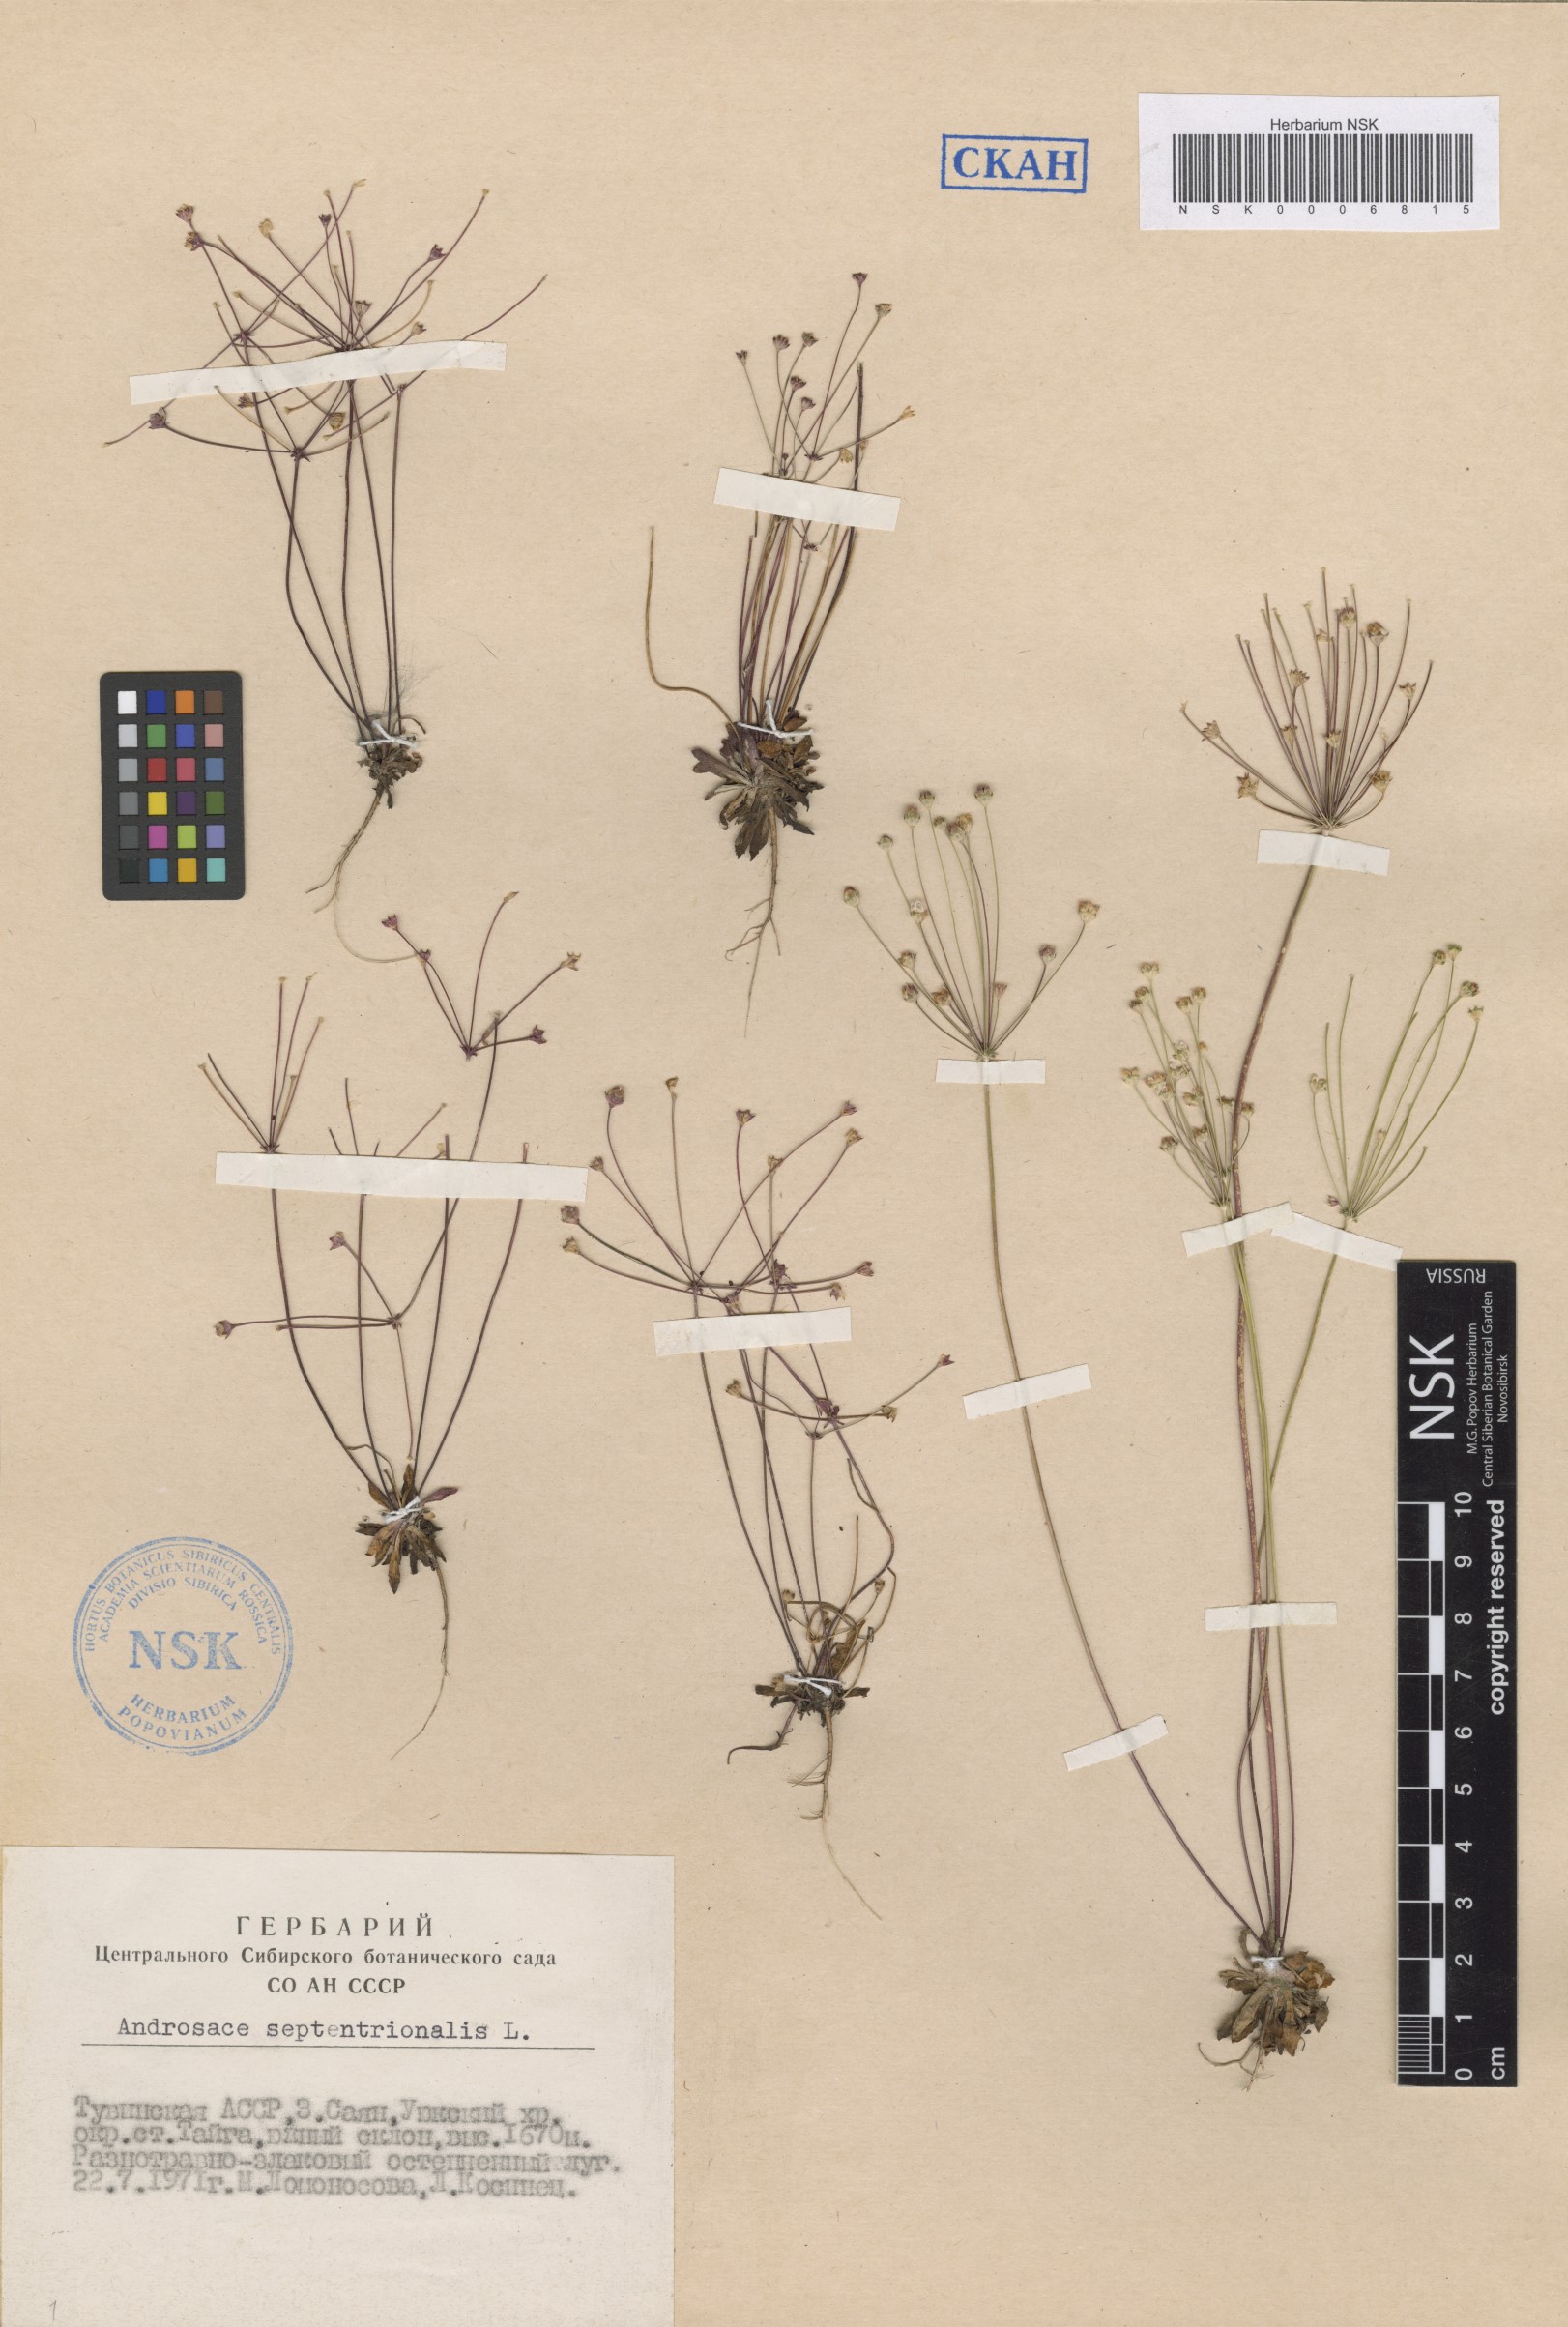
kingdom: Plantae
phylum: Tracheophyta
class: Magnoliopsida
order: Ericales
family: Primulaceae
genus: Androsace
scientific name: Androsace septentrionalis
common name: Hairy northern fairy-candelabra
